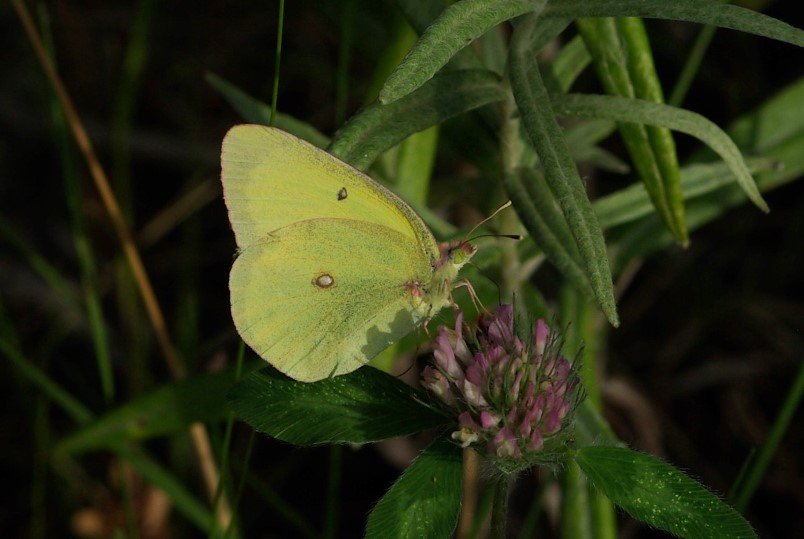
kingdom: Animalia
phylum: Arthropoda
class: Insecta
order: Lepidoptera
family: Pieridae
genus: Colias
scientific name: Colias interior
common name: Pink-edged Sulphur
